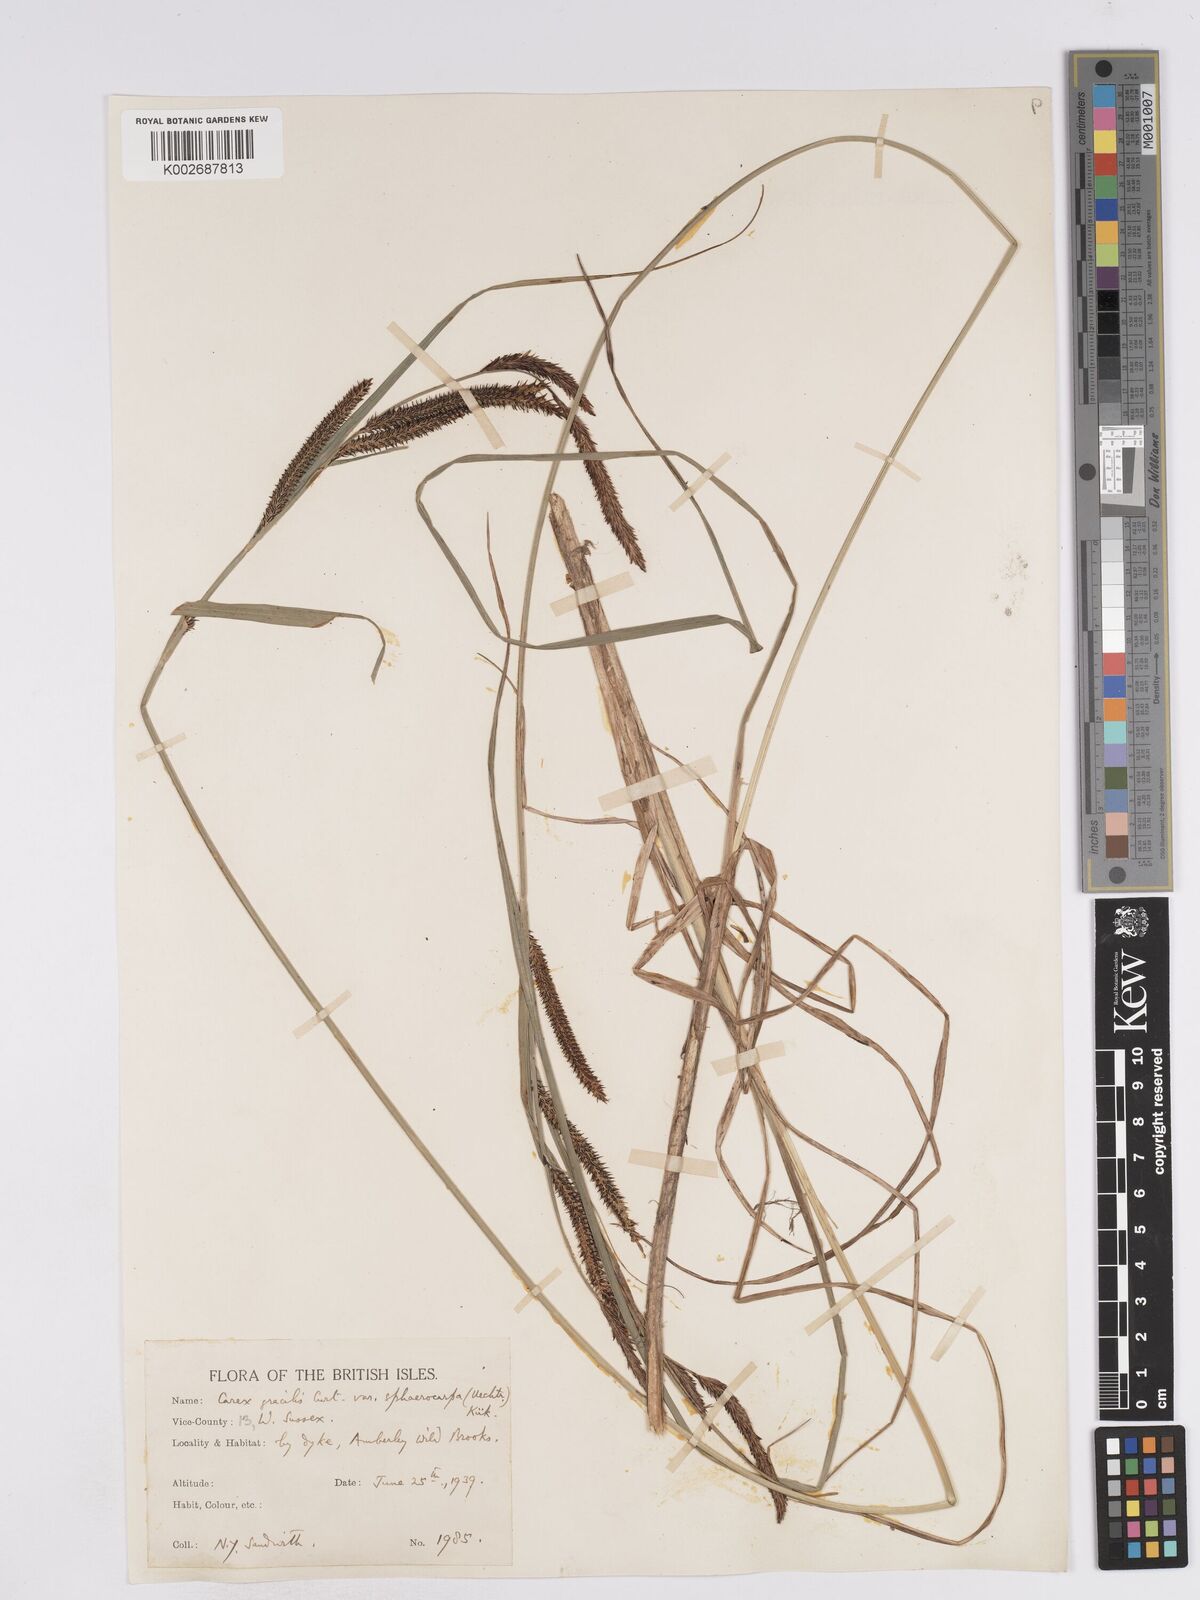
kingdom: Plantae
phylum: Tracheophyta
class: Liliopsida
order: Poales
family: Cyperaceae
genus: Carex
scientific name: Carex acuta
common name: Slender tufted-sedge
